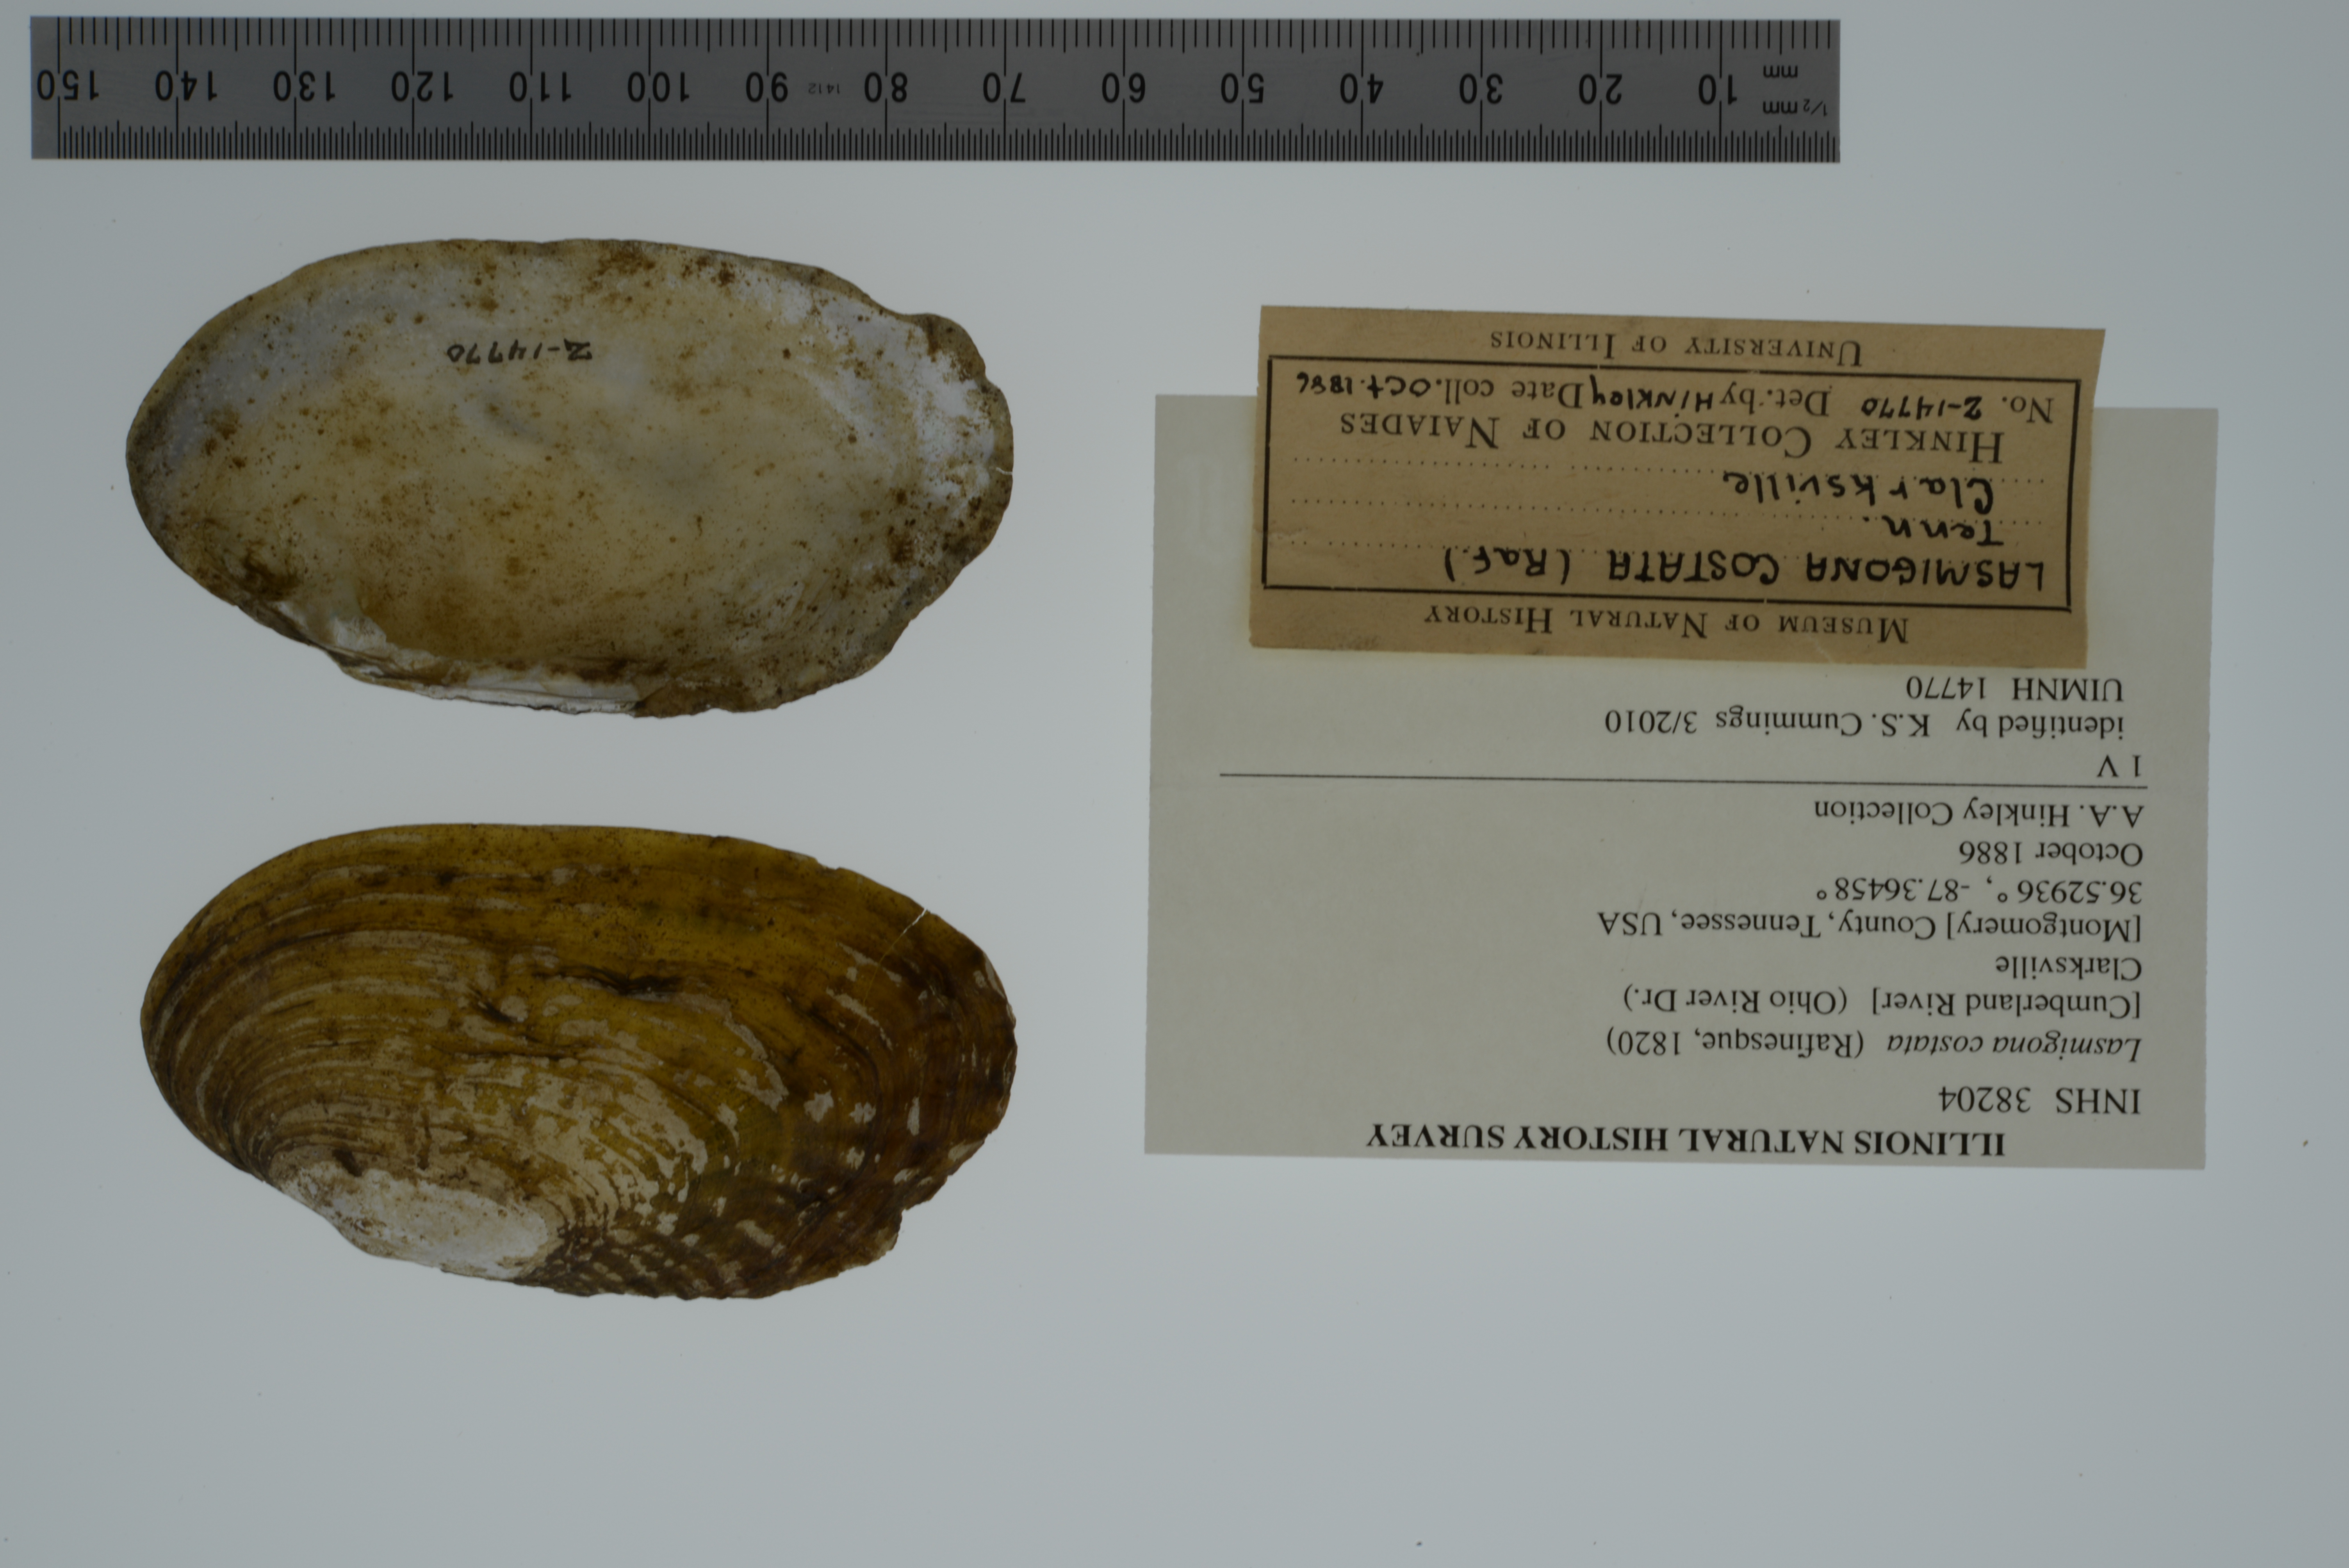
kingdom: Animalia
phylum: Mollusca
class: Bivalvia
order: Unionida
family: Unionidae
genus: Lasmigona
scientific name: Lasmigona costata
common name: Flutedshell
